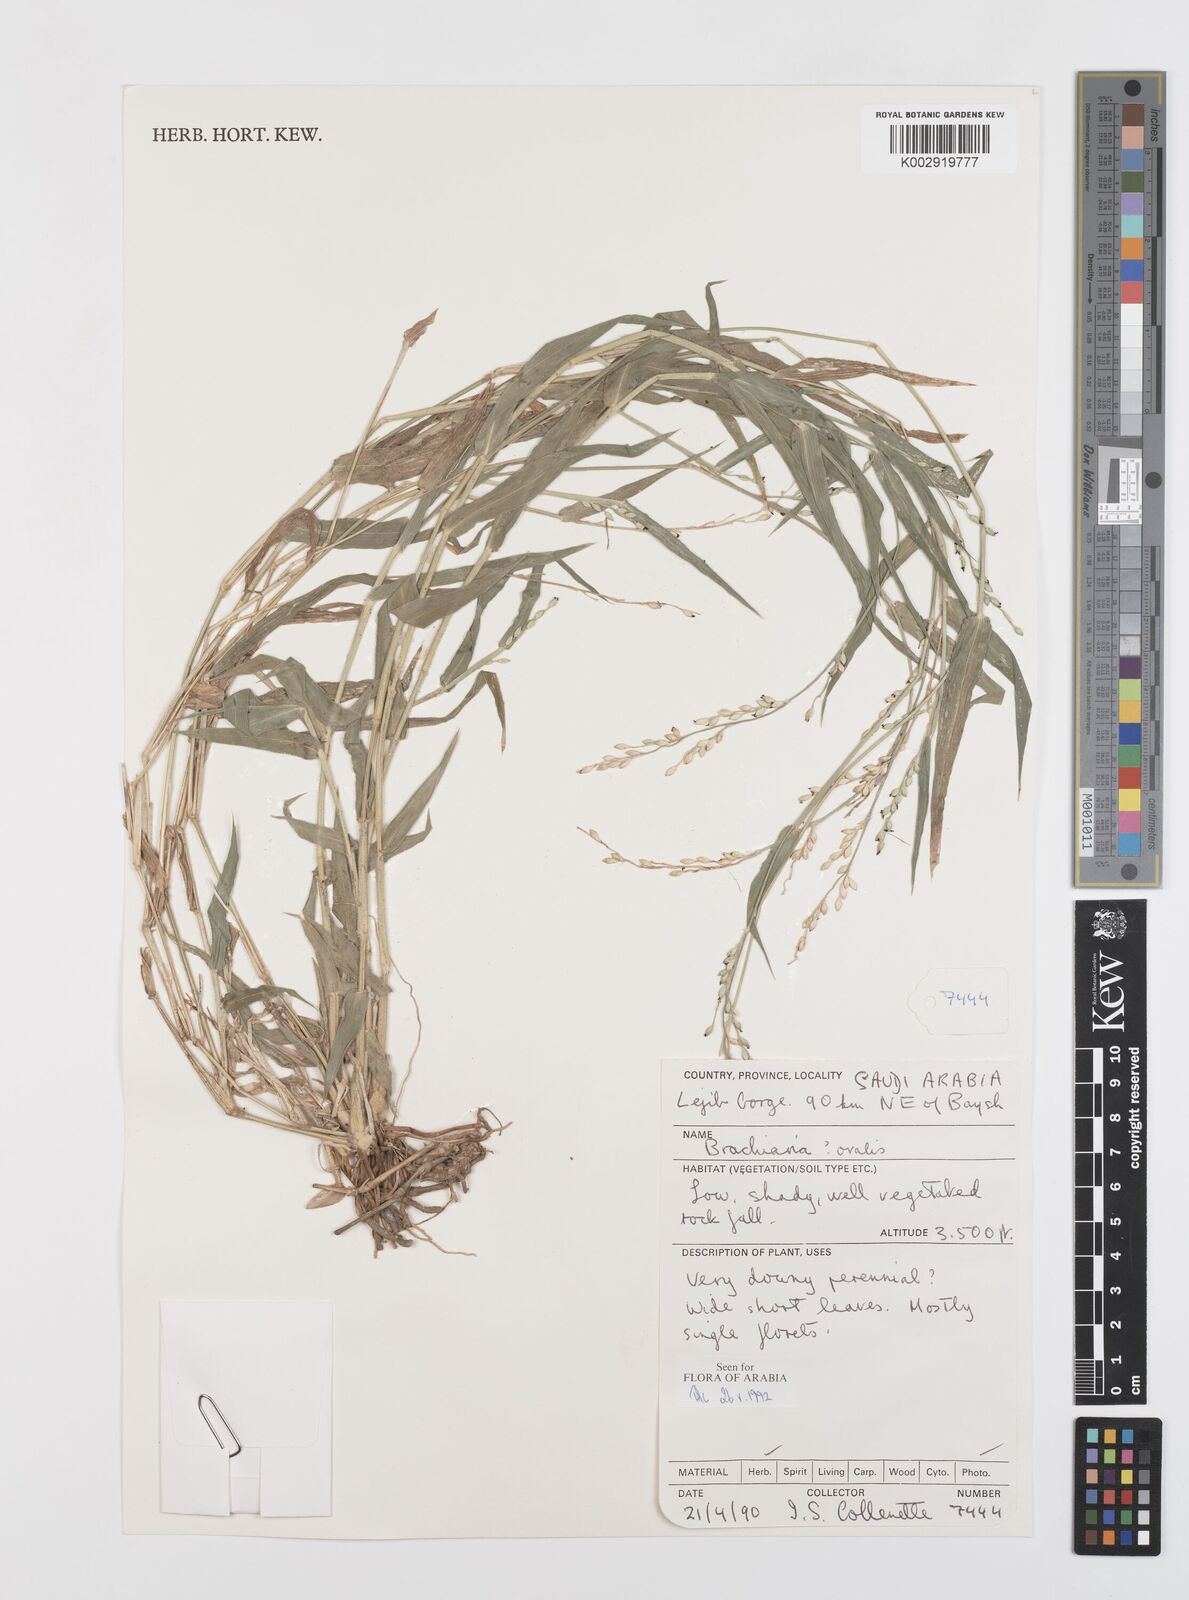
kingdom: Plantae
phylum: Tracheophyta
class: Liliopsida
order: Poales
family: Poaceae
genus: Urochloa
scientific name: Urochloa ovalis
